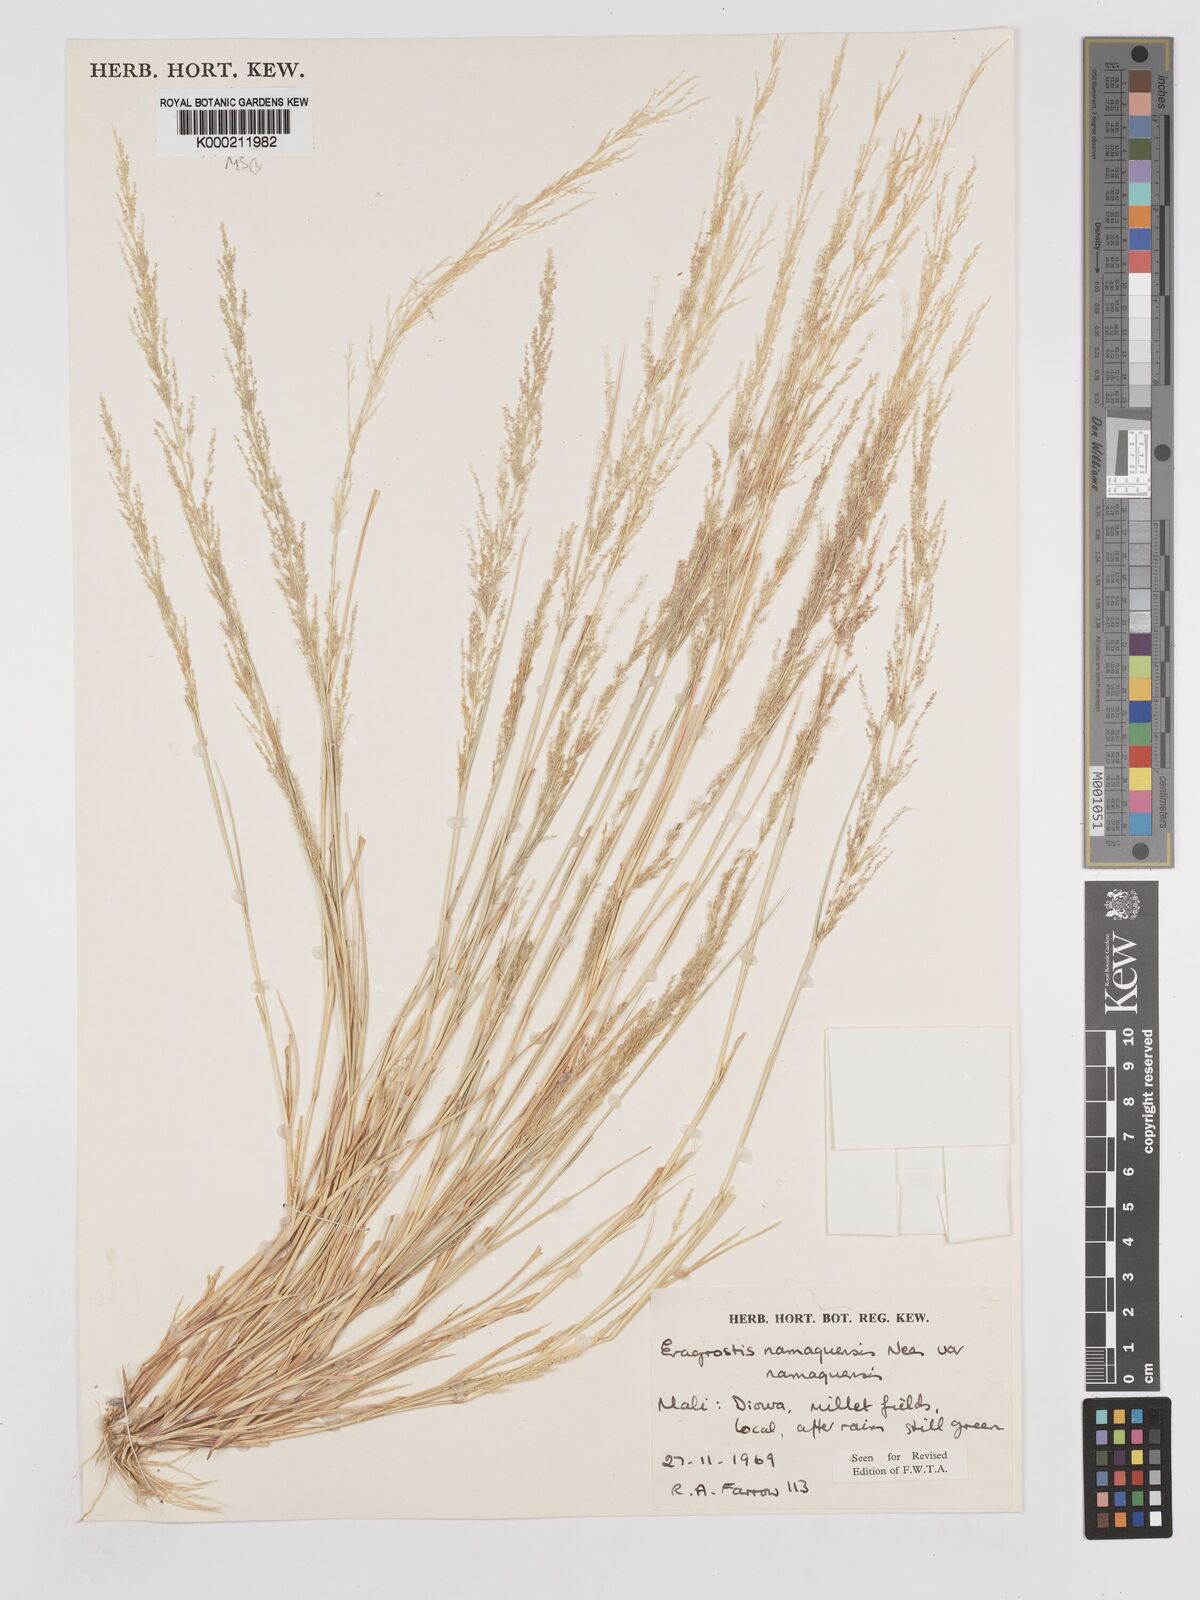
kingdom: Plantae
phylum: Tracheophyta
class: Liliopsida
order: Poales
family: Poaceae
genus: Eragrostis
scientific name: Eragrostis japonica
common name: Pond lovegrass
